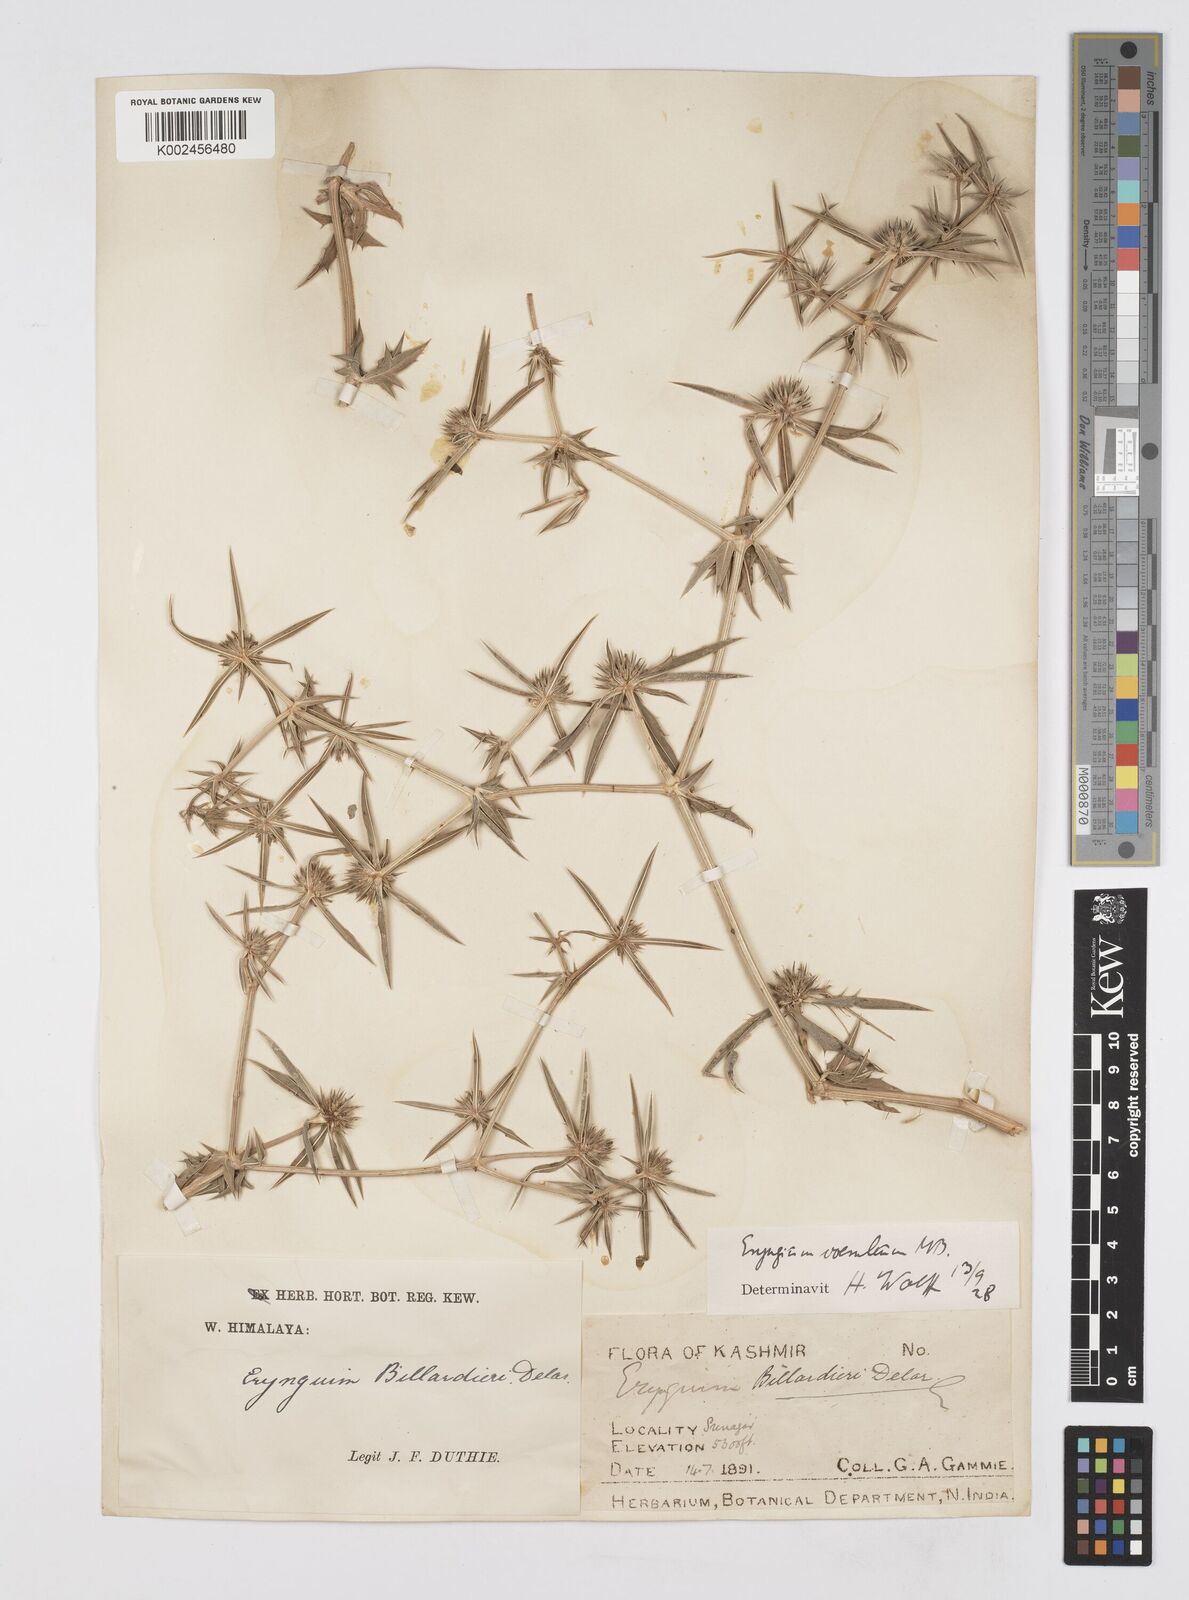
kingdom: Plantae
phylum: Tracheophyta
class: Magnoliopsida
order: Apiales
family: Apiaceae
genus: Eryngium
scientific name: Eryngium caeruleum
